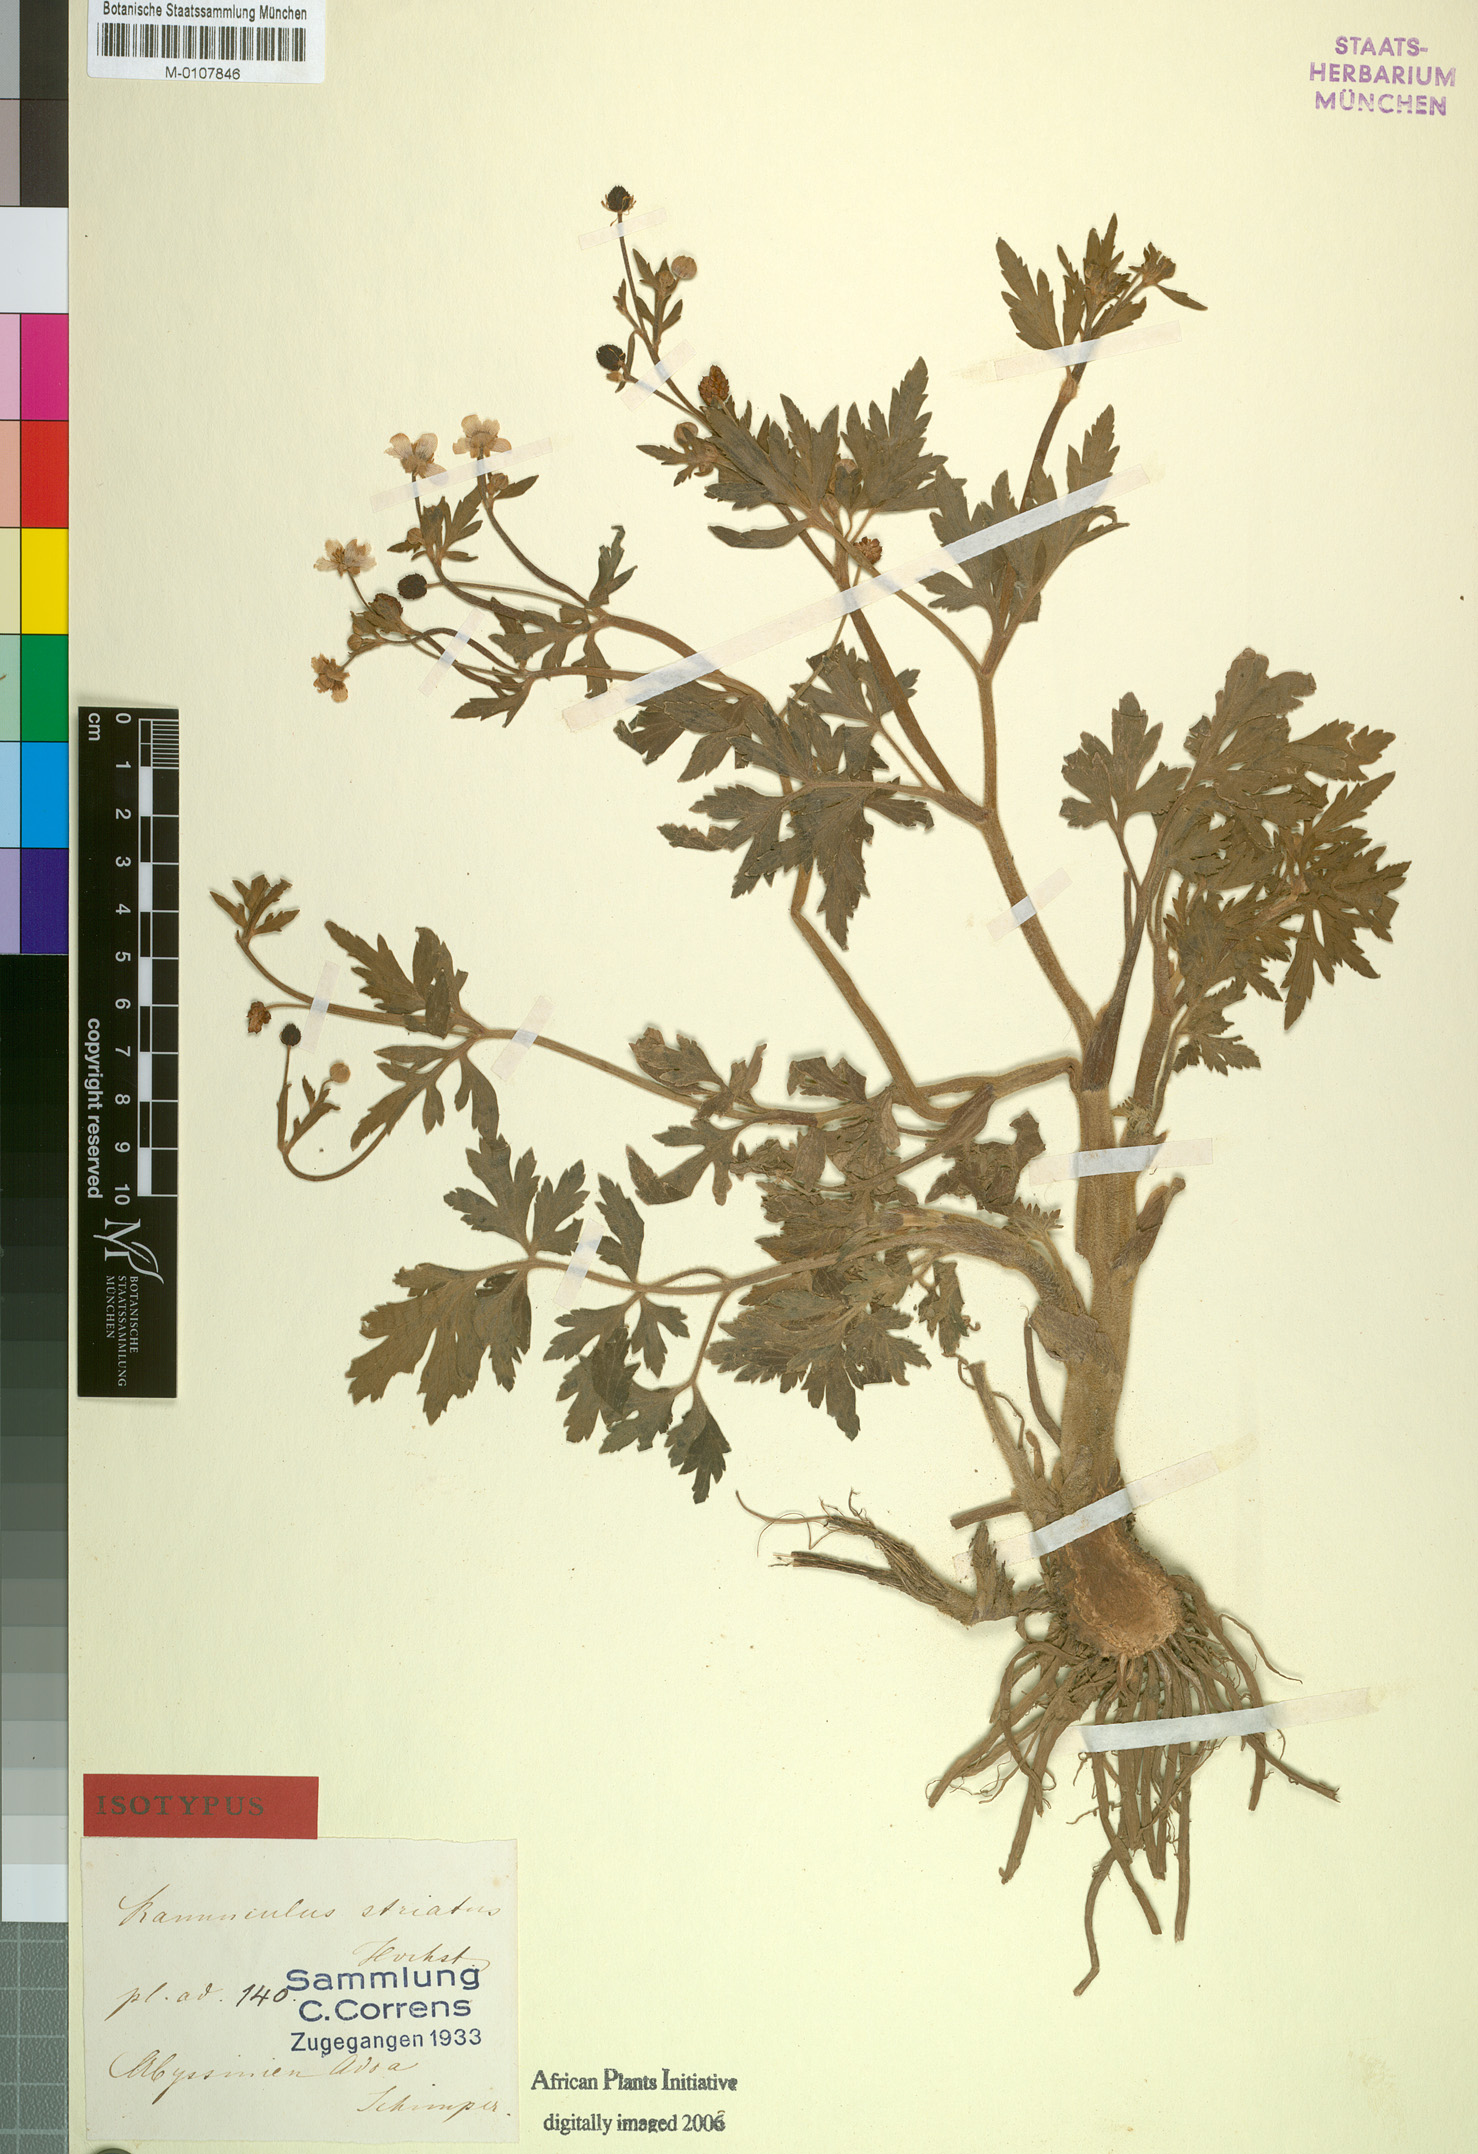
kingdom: Plantae
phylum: Tracheophyta
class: Magnoliopsida
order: Ranunculales
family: Ranunculaceae
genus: Ranunculus
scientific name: Ranunculus multifidus
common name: Wild buttercup
